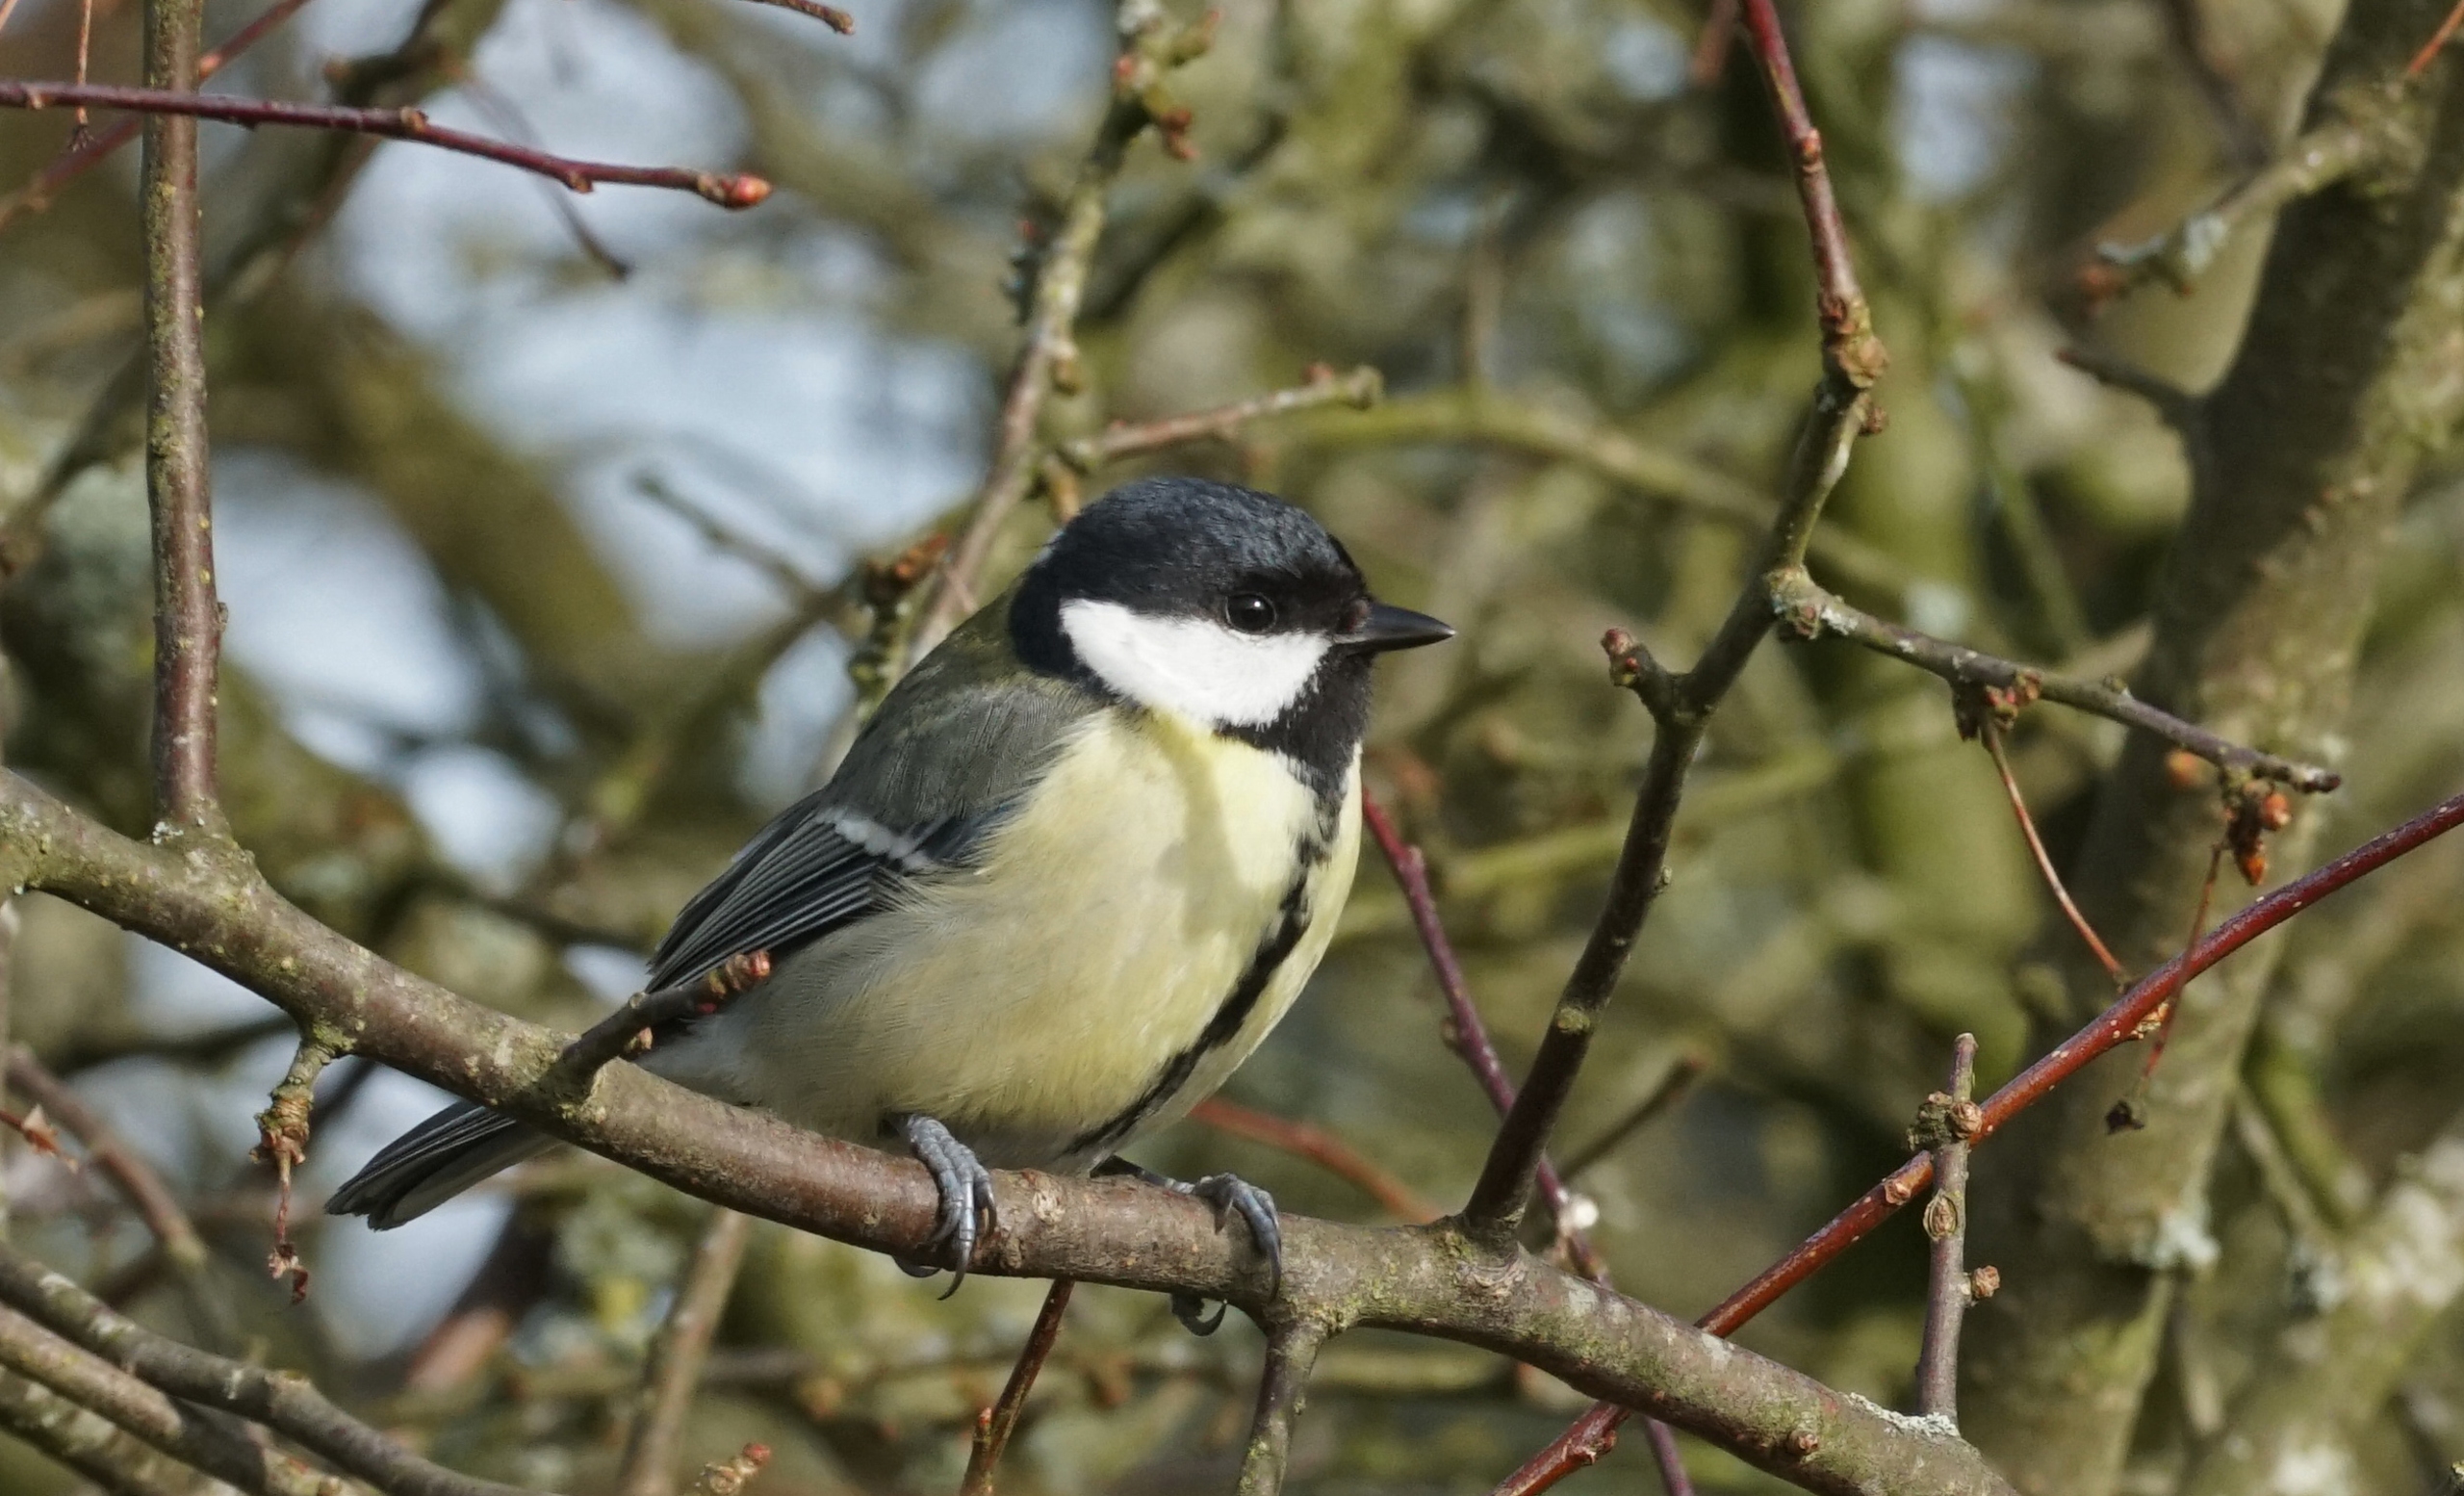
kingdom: Animalia
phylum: Chordata
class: Aves
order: Passeriformes
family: Paridae
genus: Parus
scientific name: Parus major
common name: Musvit
